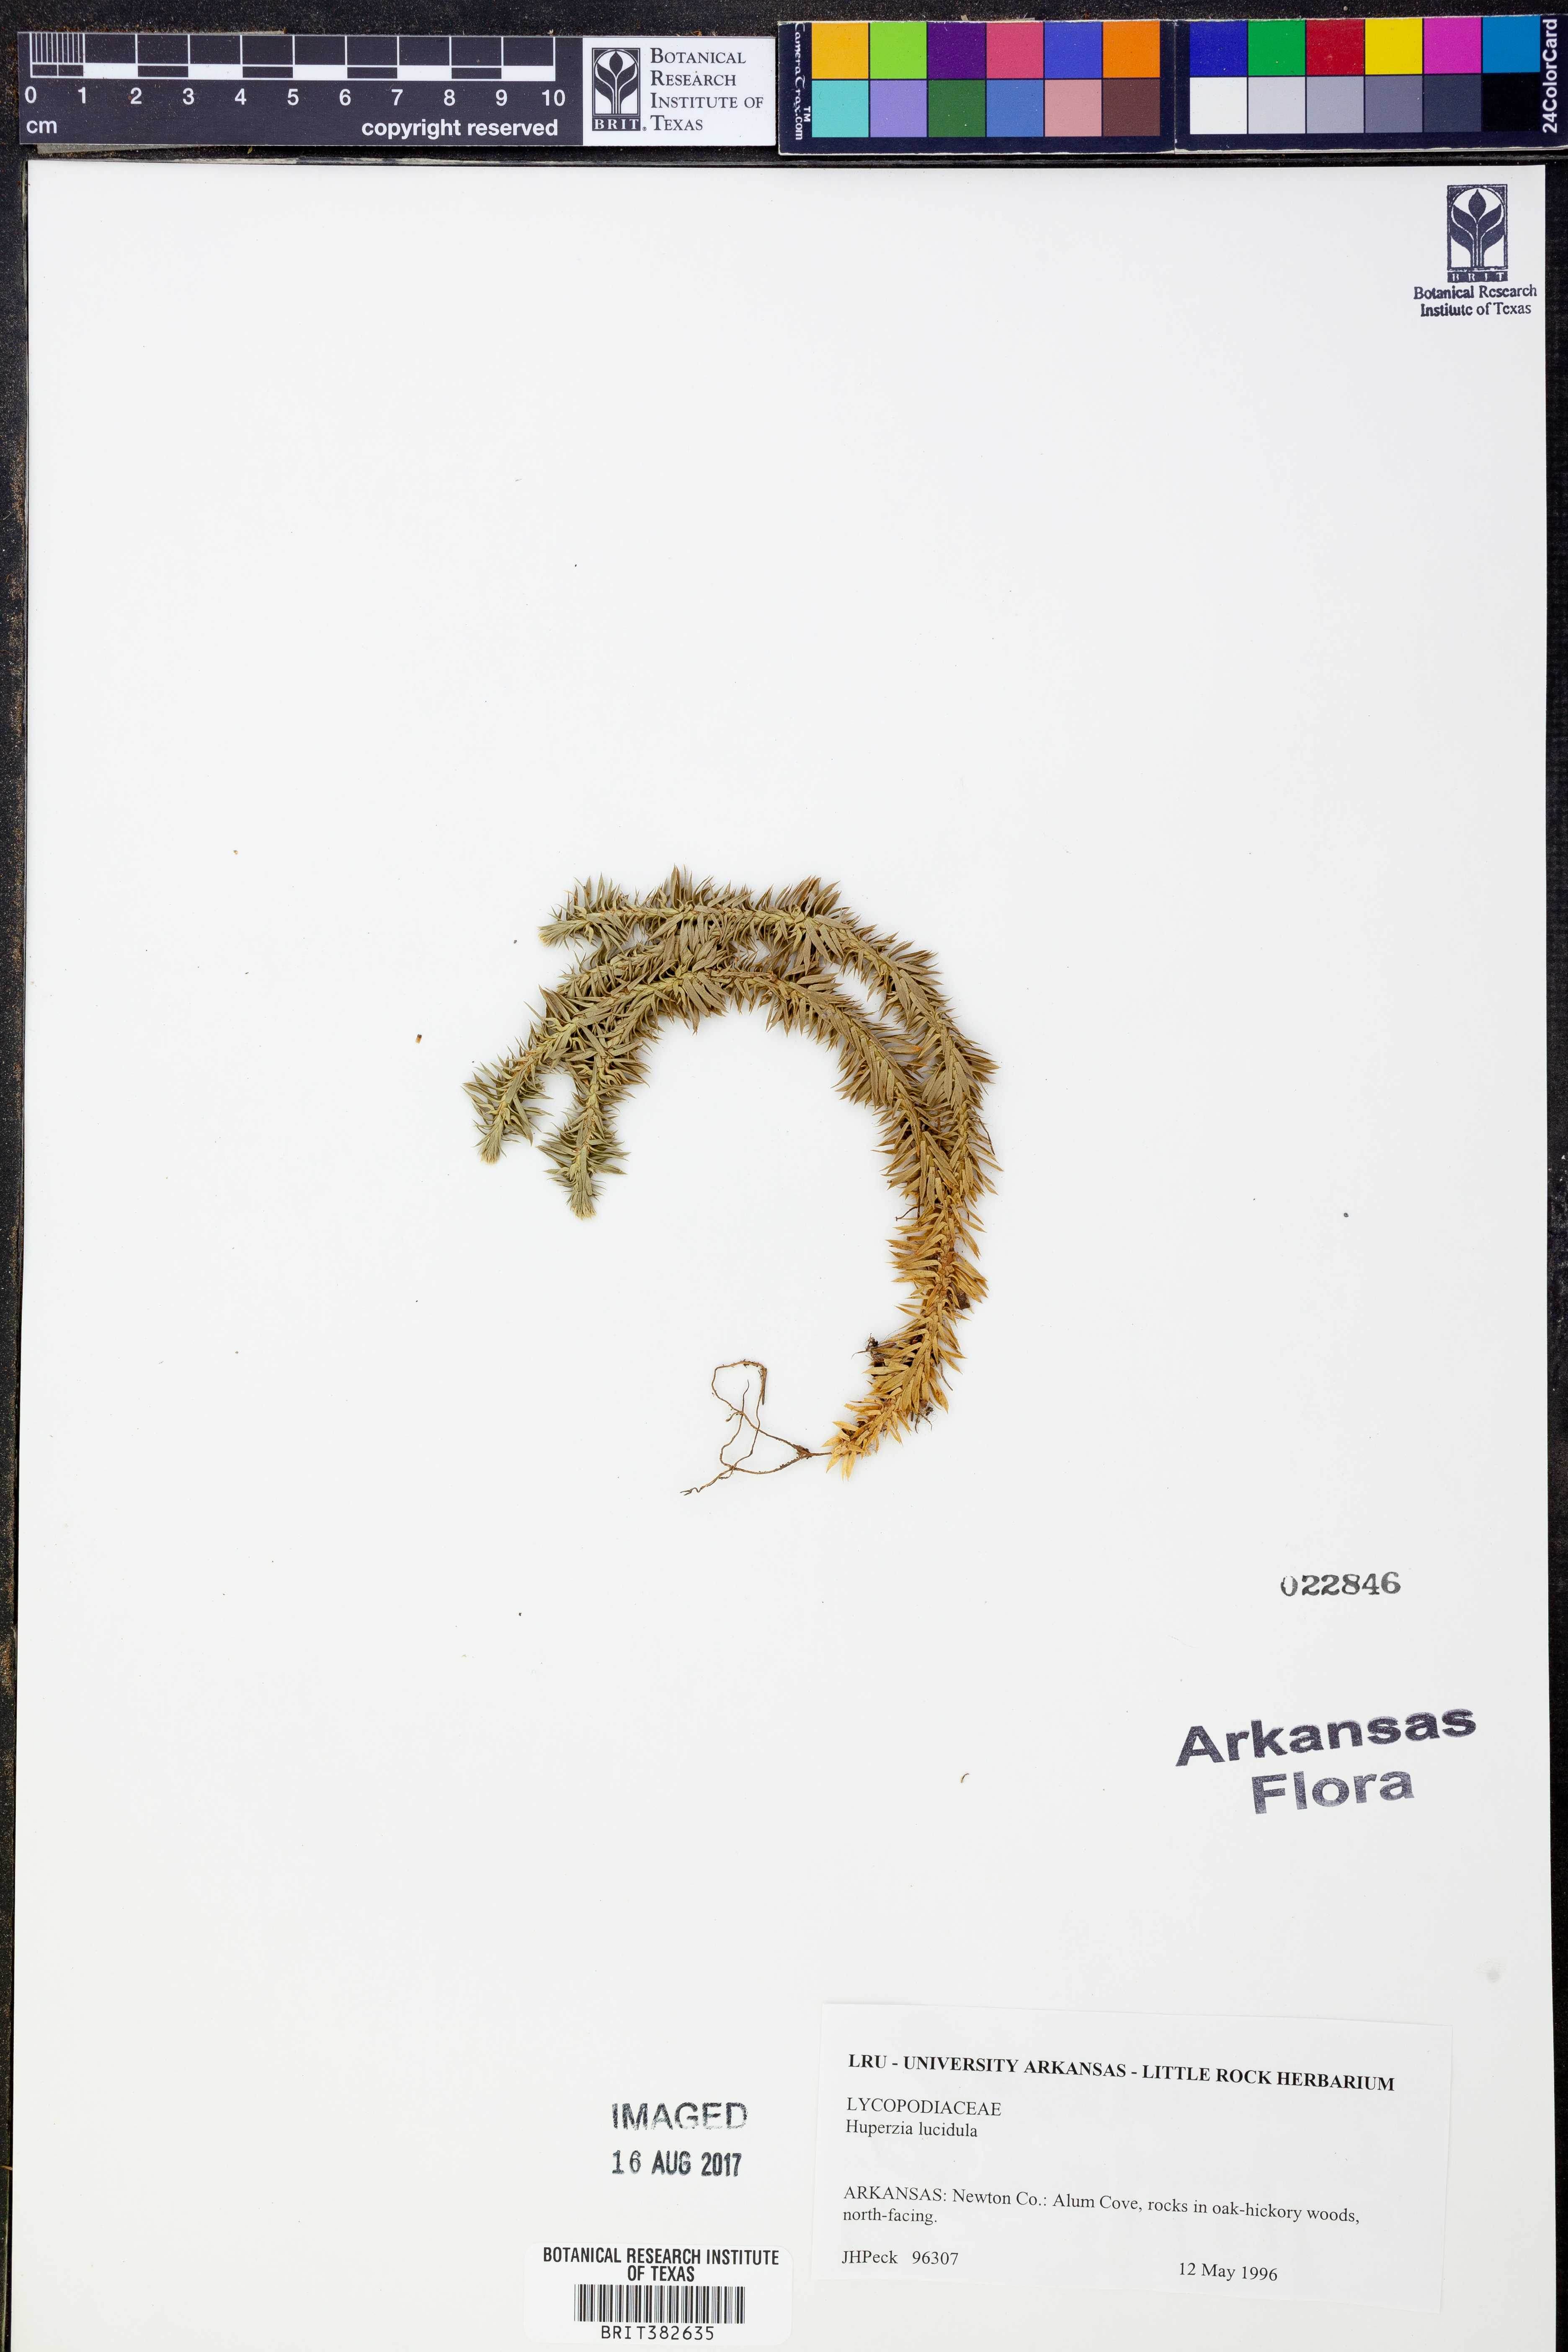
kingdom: Plantae
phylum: Tracheophyta
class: Lycopodiopsida
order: Lycopodiales
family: Lycopodiaceae
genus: Huperzia
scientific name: Huperzia lucidula
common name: Shining clubmoss
